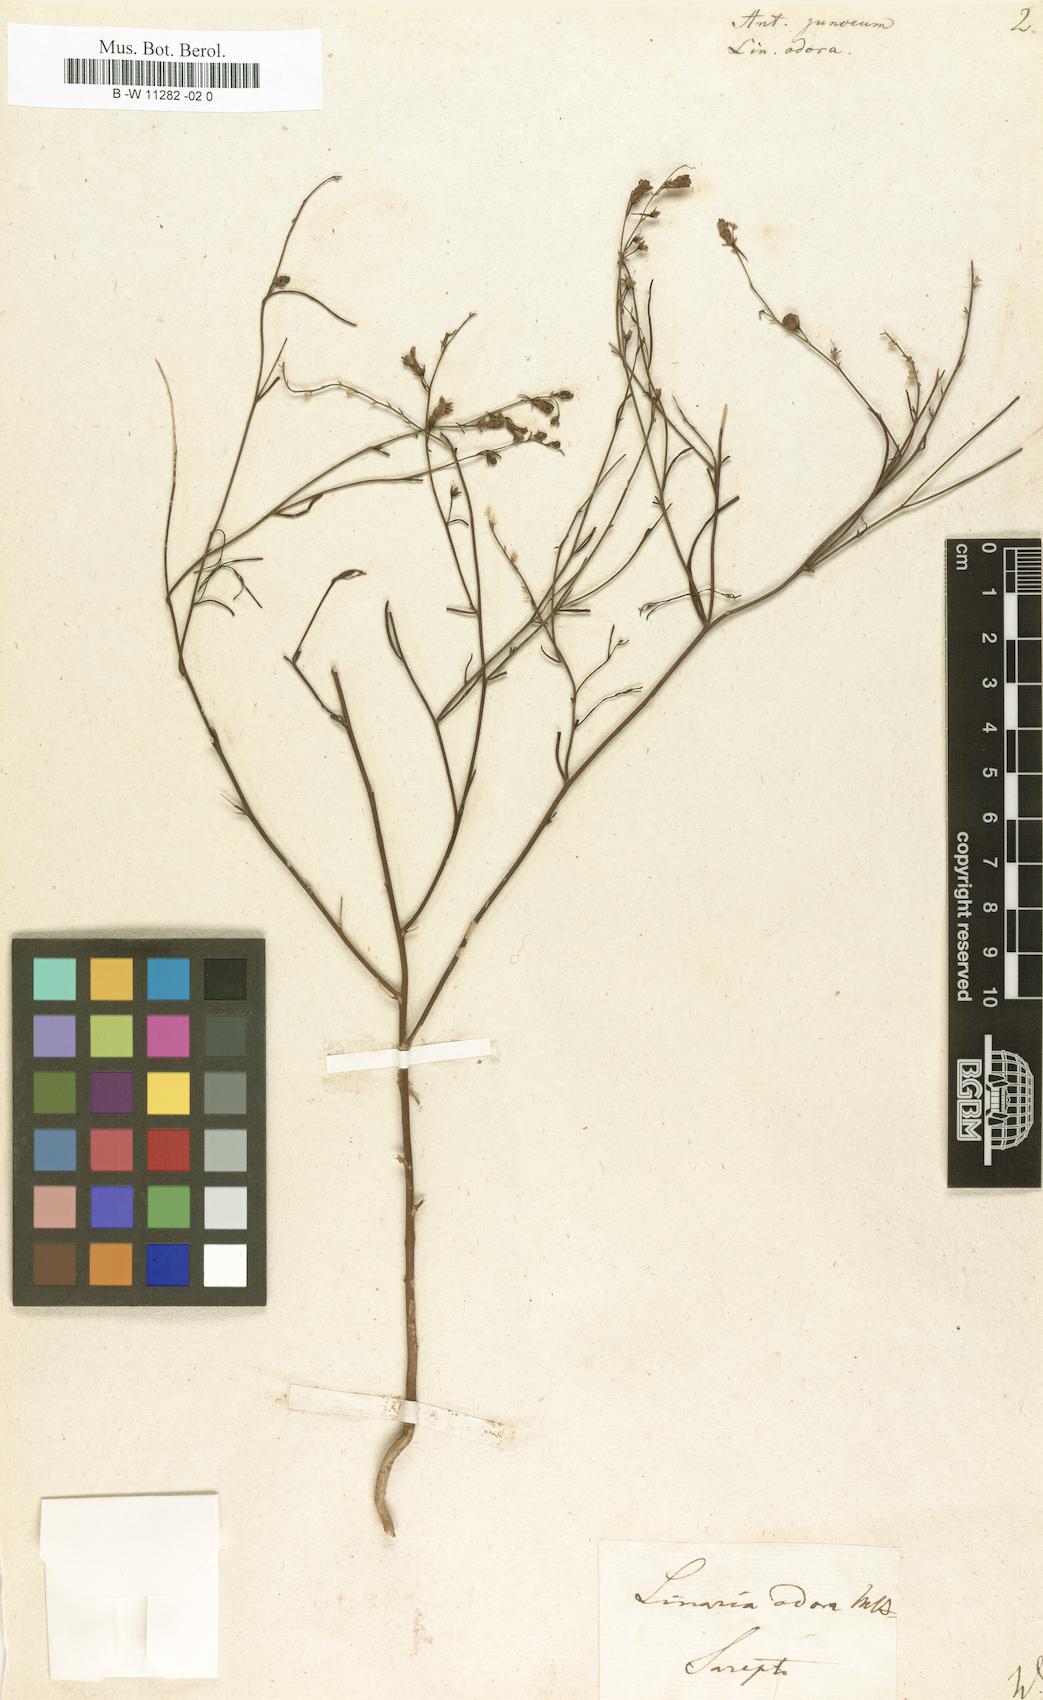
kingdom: Plantae
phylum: Tracheophyta
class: Magnoliopsida
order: Lamiales
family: Plantaginaceae
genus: Linaria
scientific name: Linaria odora
